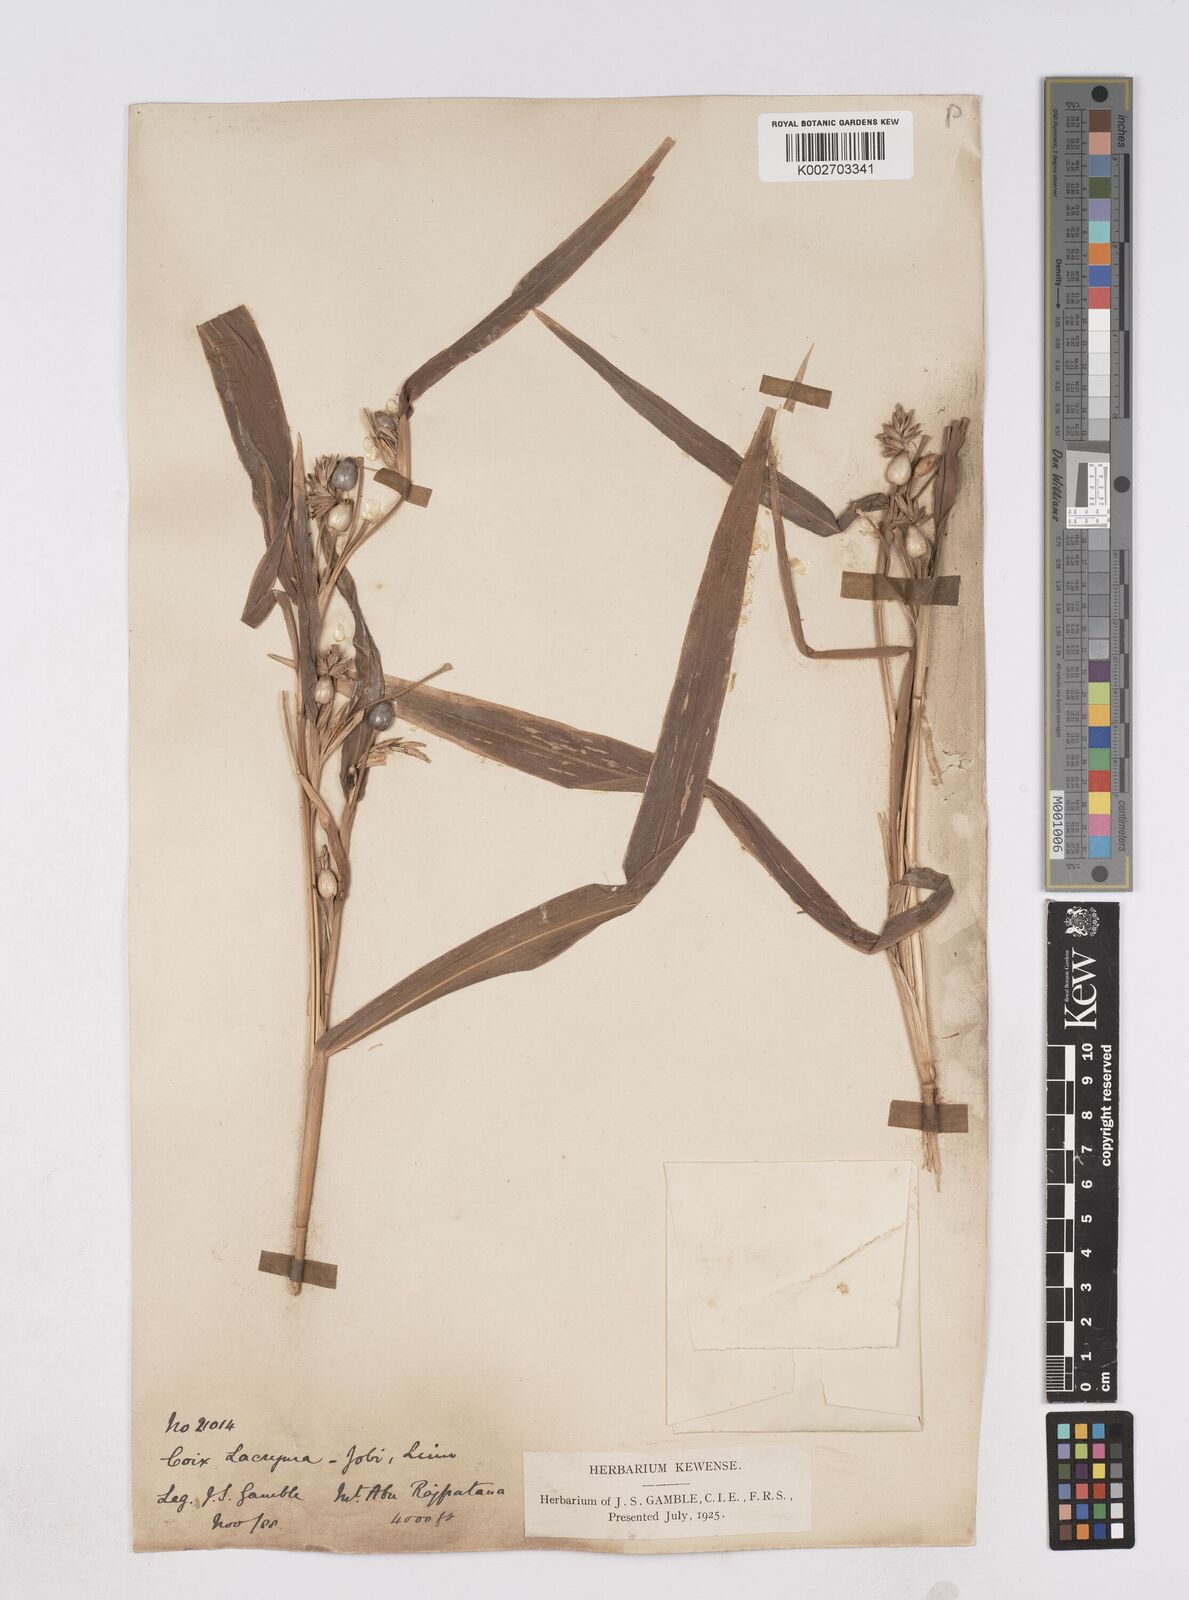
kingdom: Plantae
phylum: Tracheophyta
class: Liliopsida
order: Poales
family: Poaceae
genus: Coix
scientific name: Coix lacryma-jobi
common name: Job's tears
